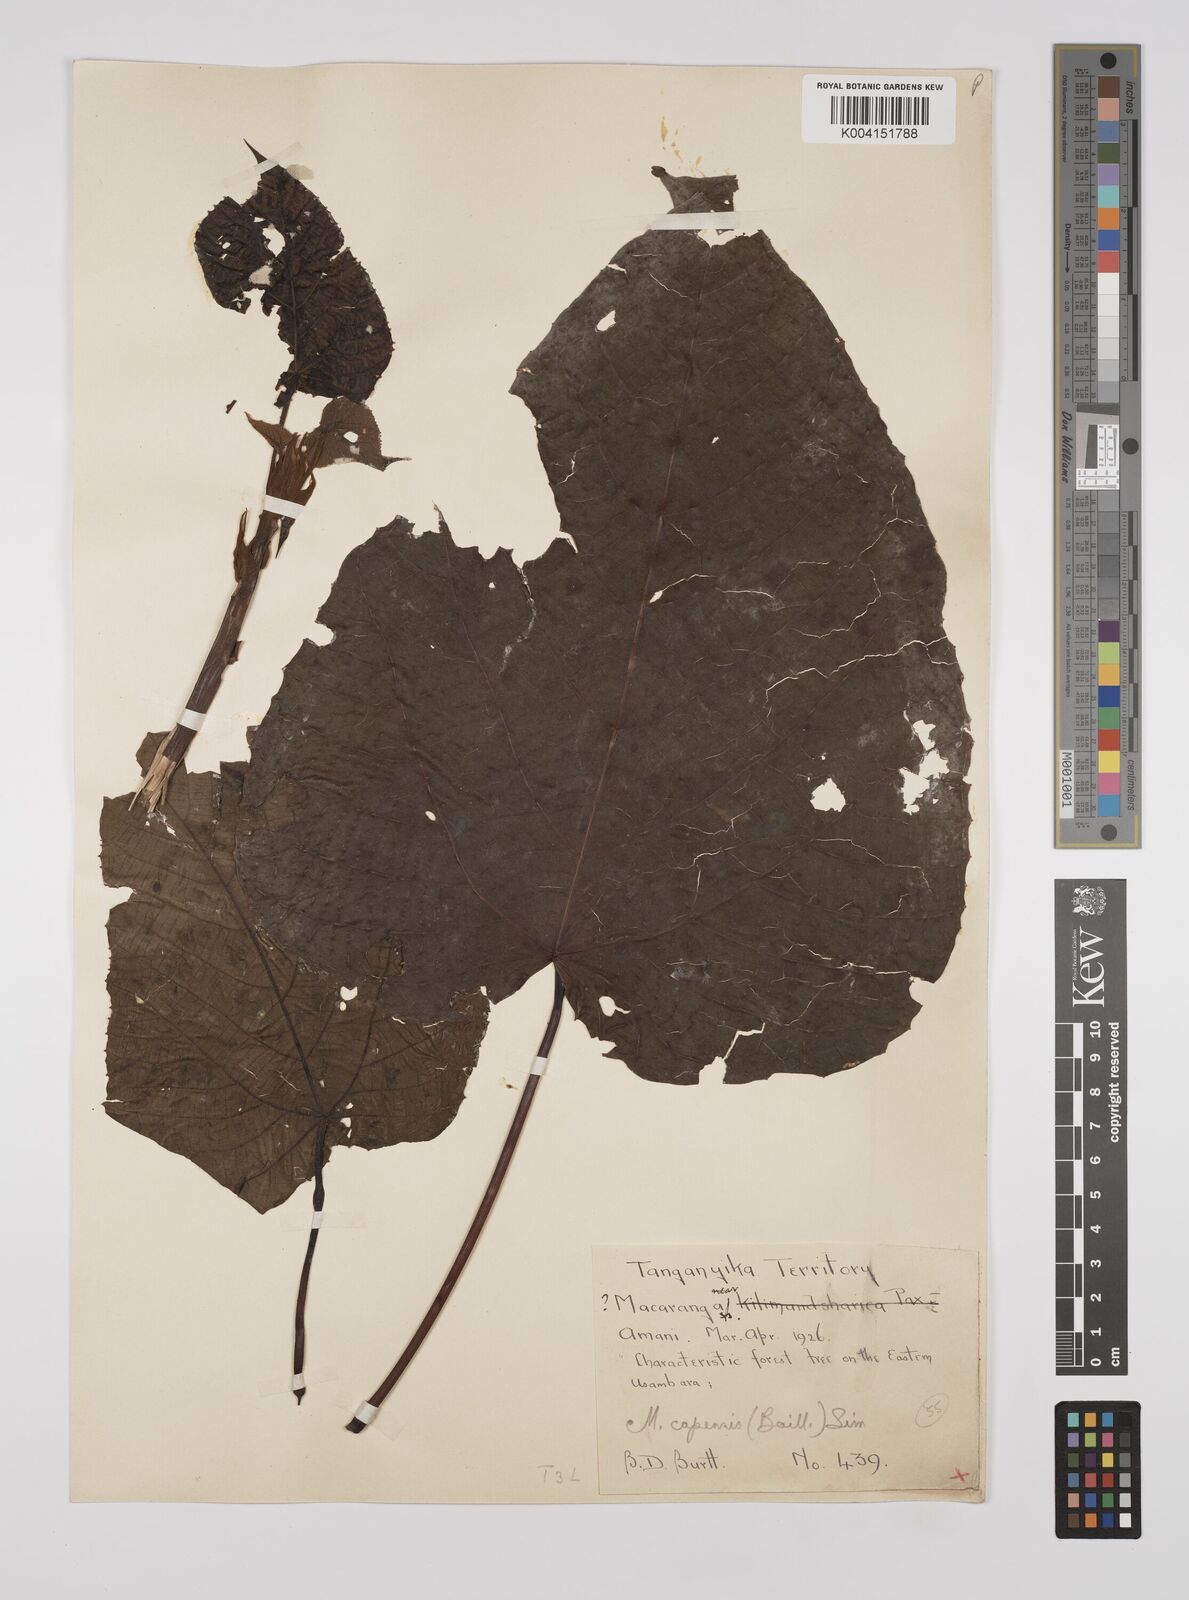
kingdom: Plantae
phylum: Tracheophyta
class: Magnoliopsida
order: Malpighiales
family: Euphorbiaceae
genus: Macaranga
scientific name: Macaranga capensis
